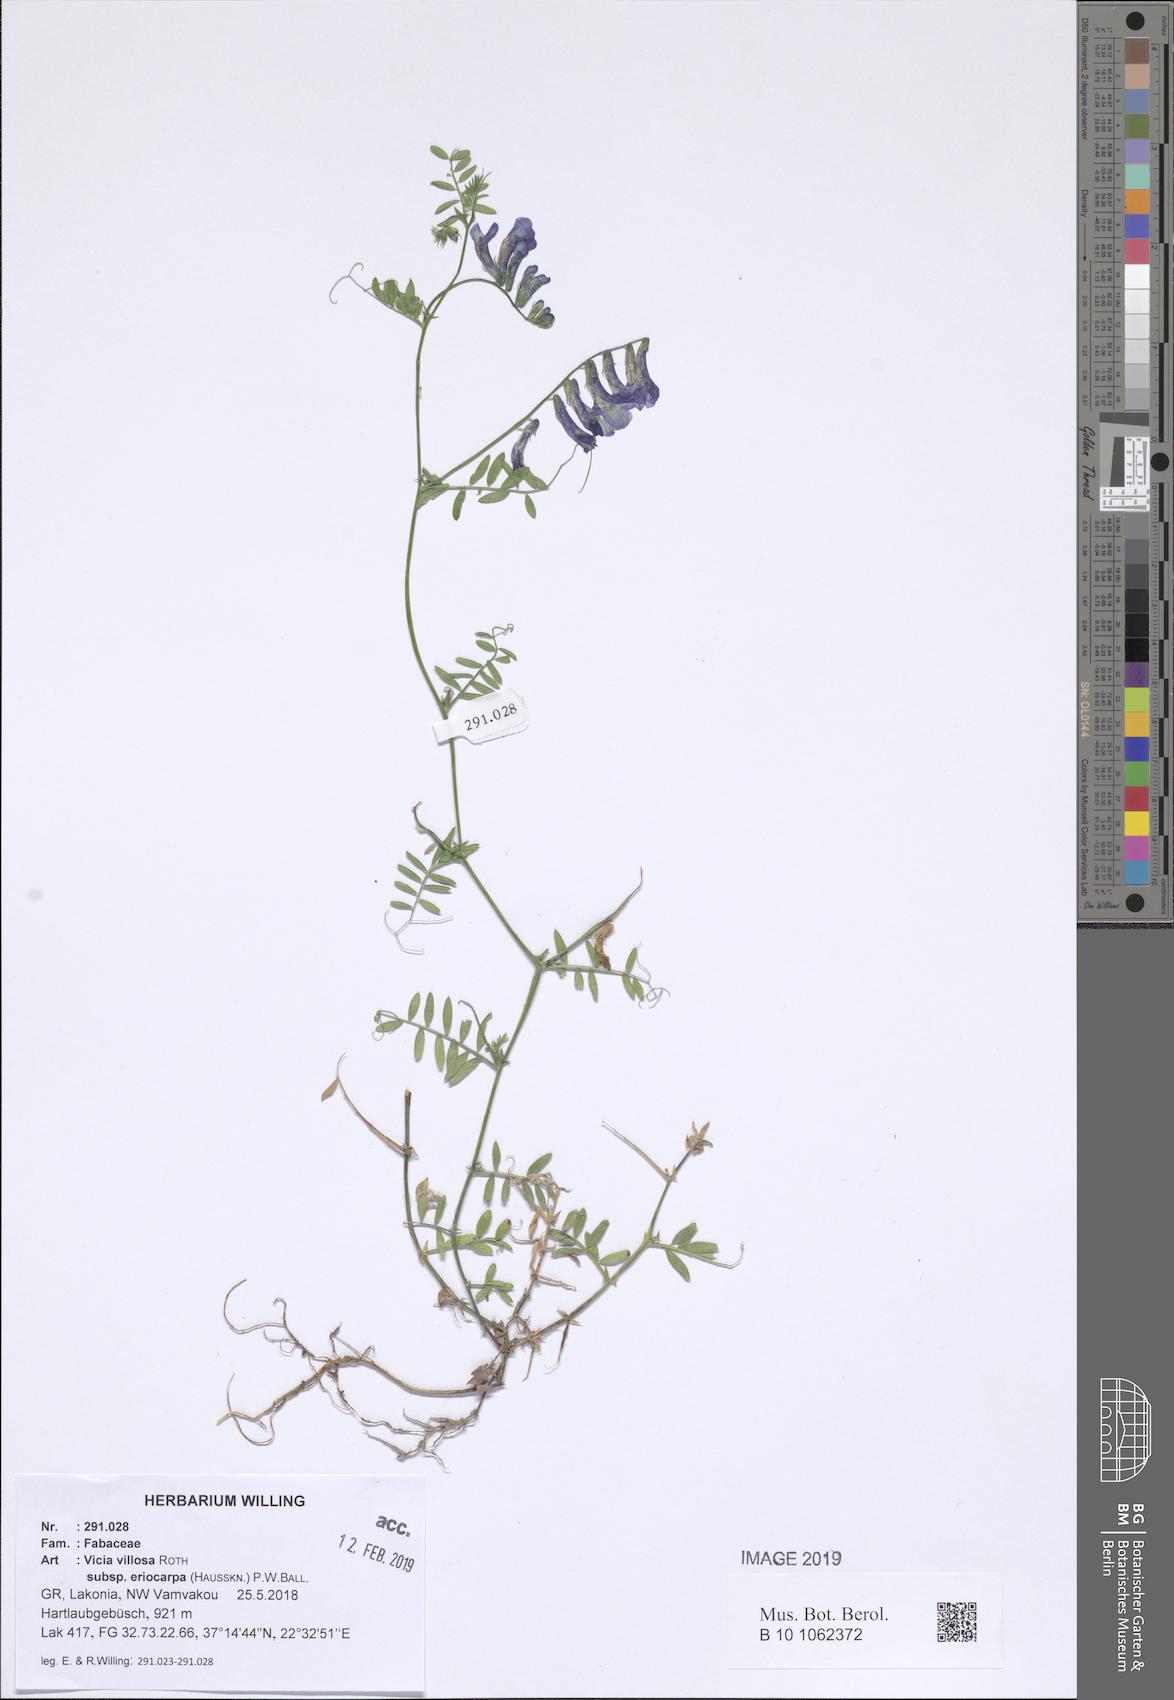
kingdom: Plantae
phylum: Tracheophyta
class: Magnoliopsida
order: Fabales
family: Fabaceae
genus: Vicia
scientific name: Vicia eriocarpa
